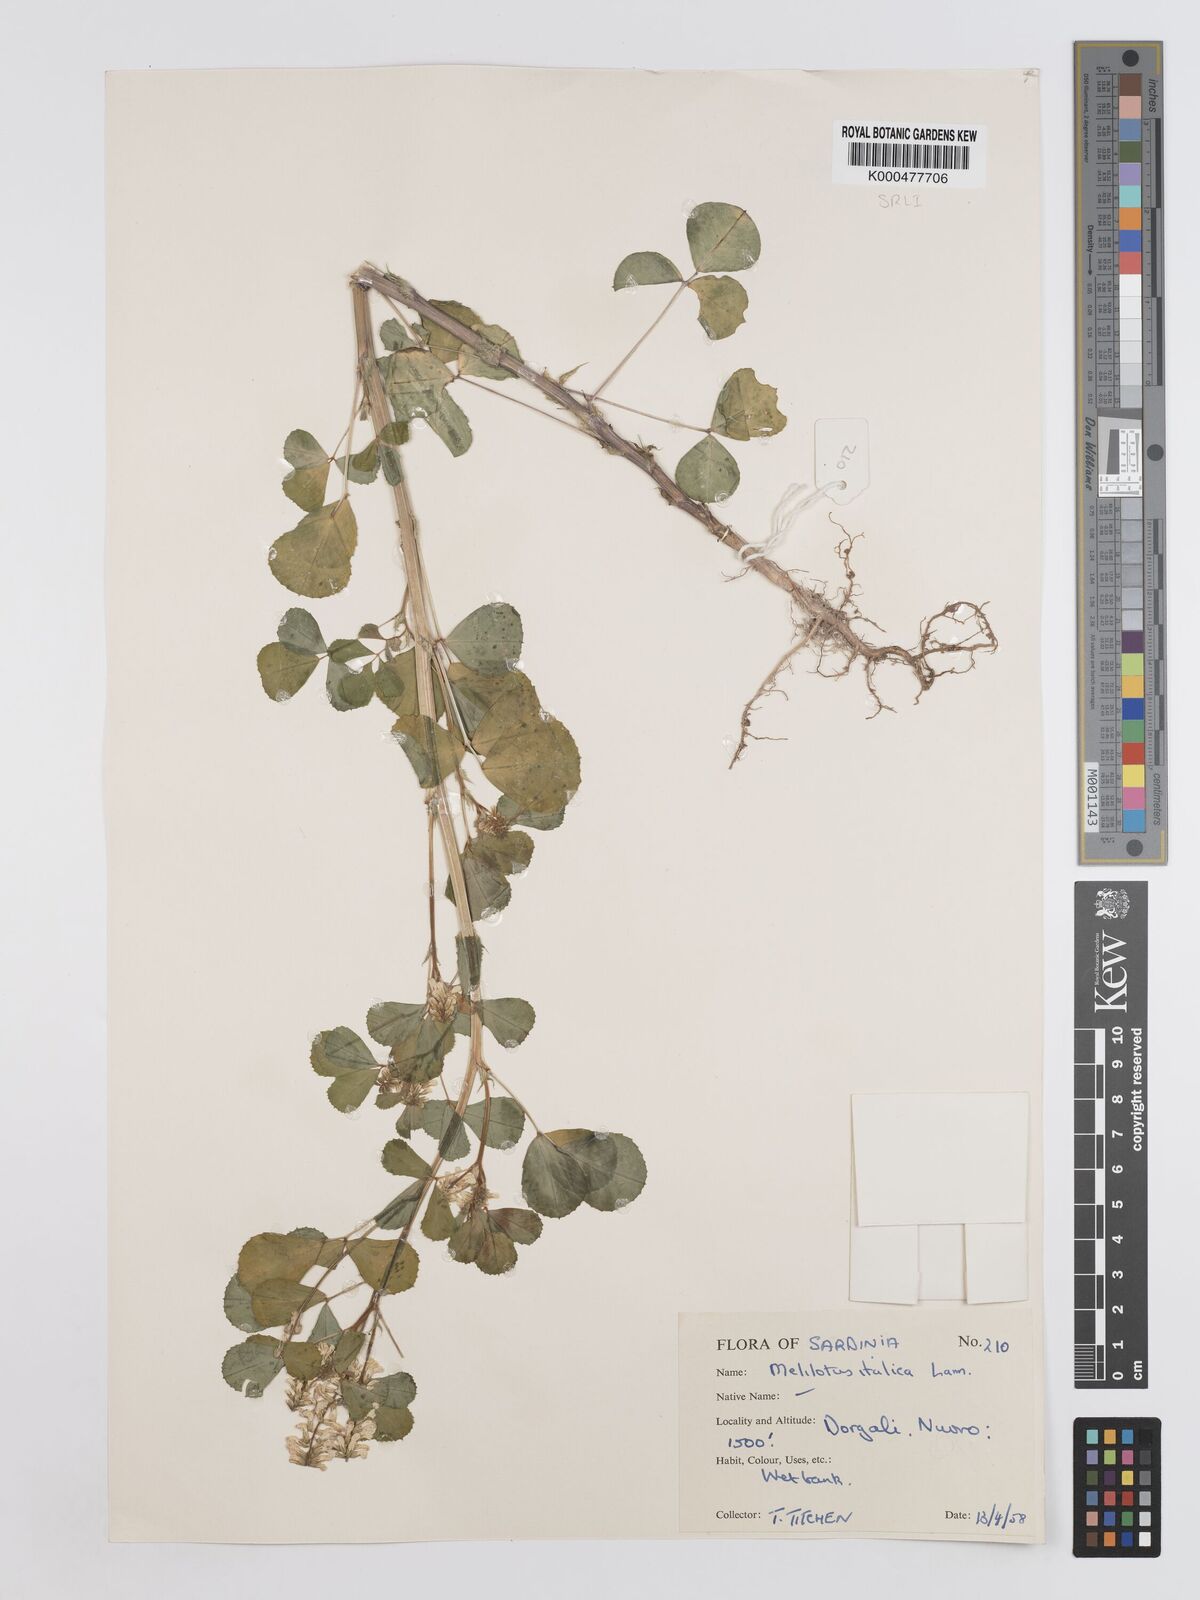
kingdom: Plantae
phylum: Tracheophyta
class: Magnoliopsida
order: Fabales
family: Fabaceae
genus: Melilotus
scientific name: Melilotus italicus
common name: Italian melilot
